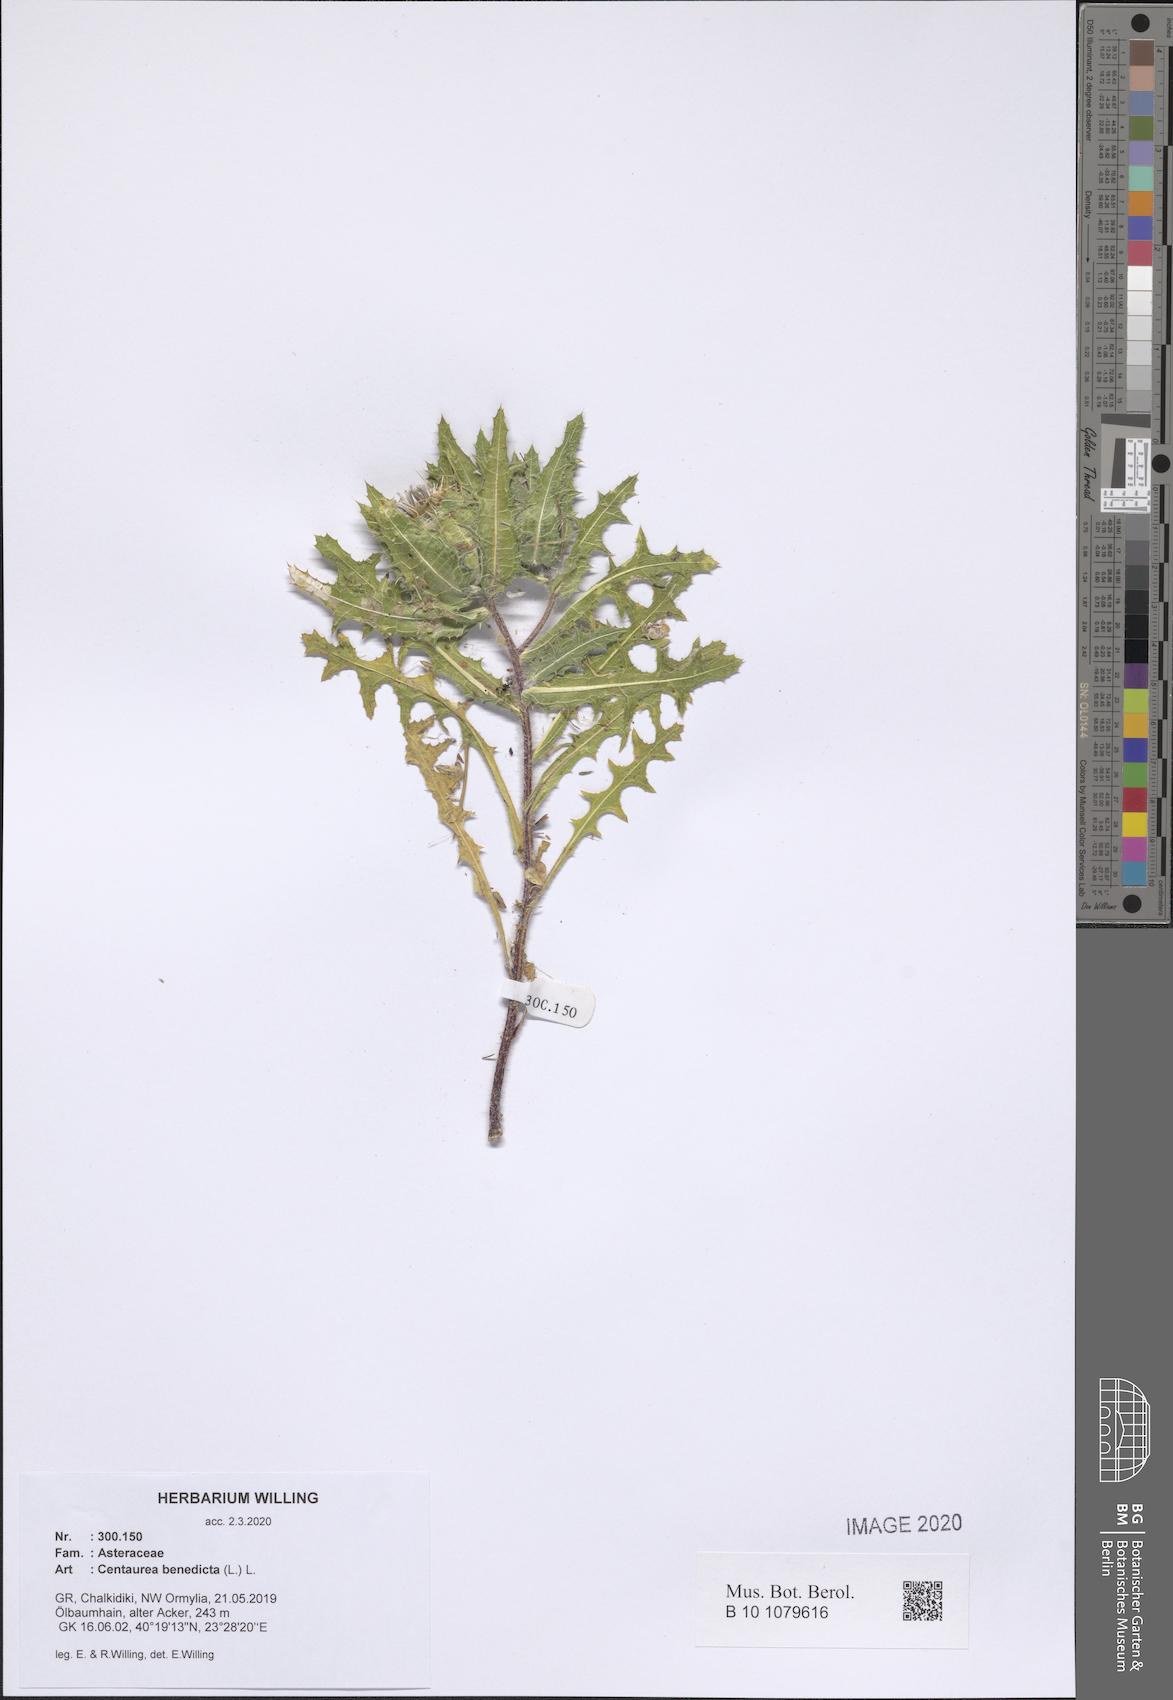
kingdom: Plantae
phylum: Tracheophyta
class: Magnoliopsida
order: Asterales
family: Asteraceae
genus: Centaurea
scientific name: Centaurea benedicta
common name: Blessed thistle
